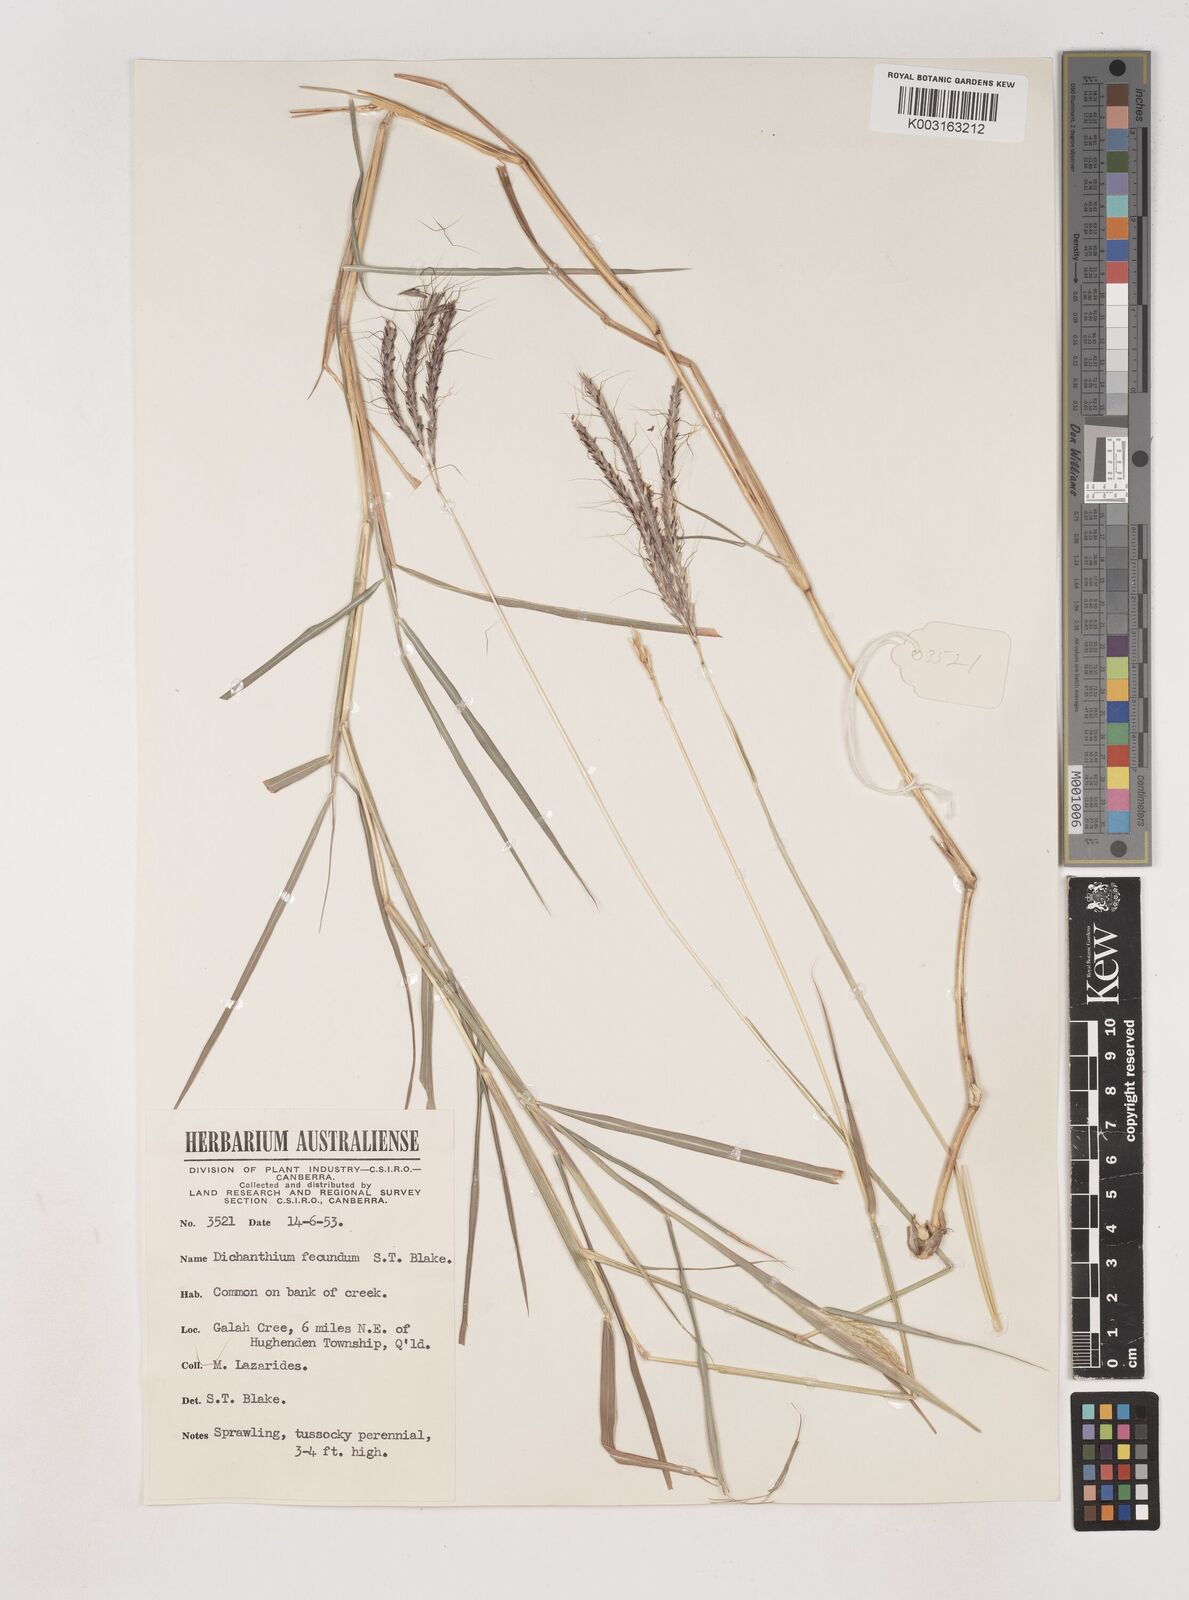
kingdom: Plantae
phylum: Tracheophyta
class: Liliopsida
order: Poales
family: Poaceae
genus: Dichanthium
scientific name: Dichanthium fecundum
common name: Bundle-bundle
